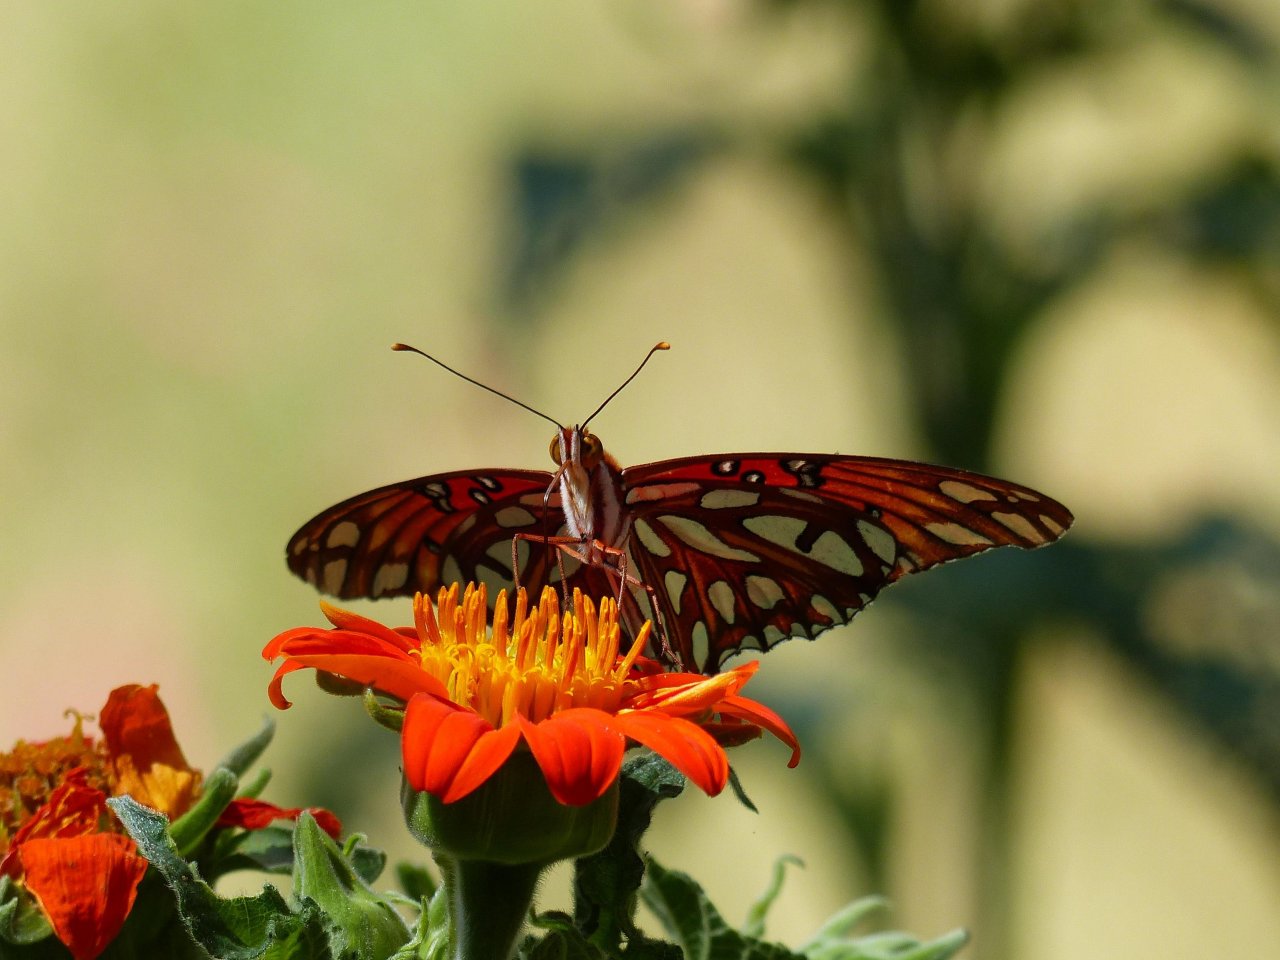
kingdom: Animalia
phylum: Arthropoda
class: Insecta
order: Lepidoptera
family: Nymphalidae
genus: Dione
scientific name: Dione vanillae
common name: Gulf Fritillary
